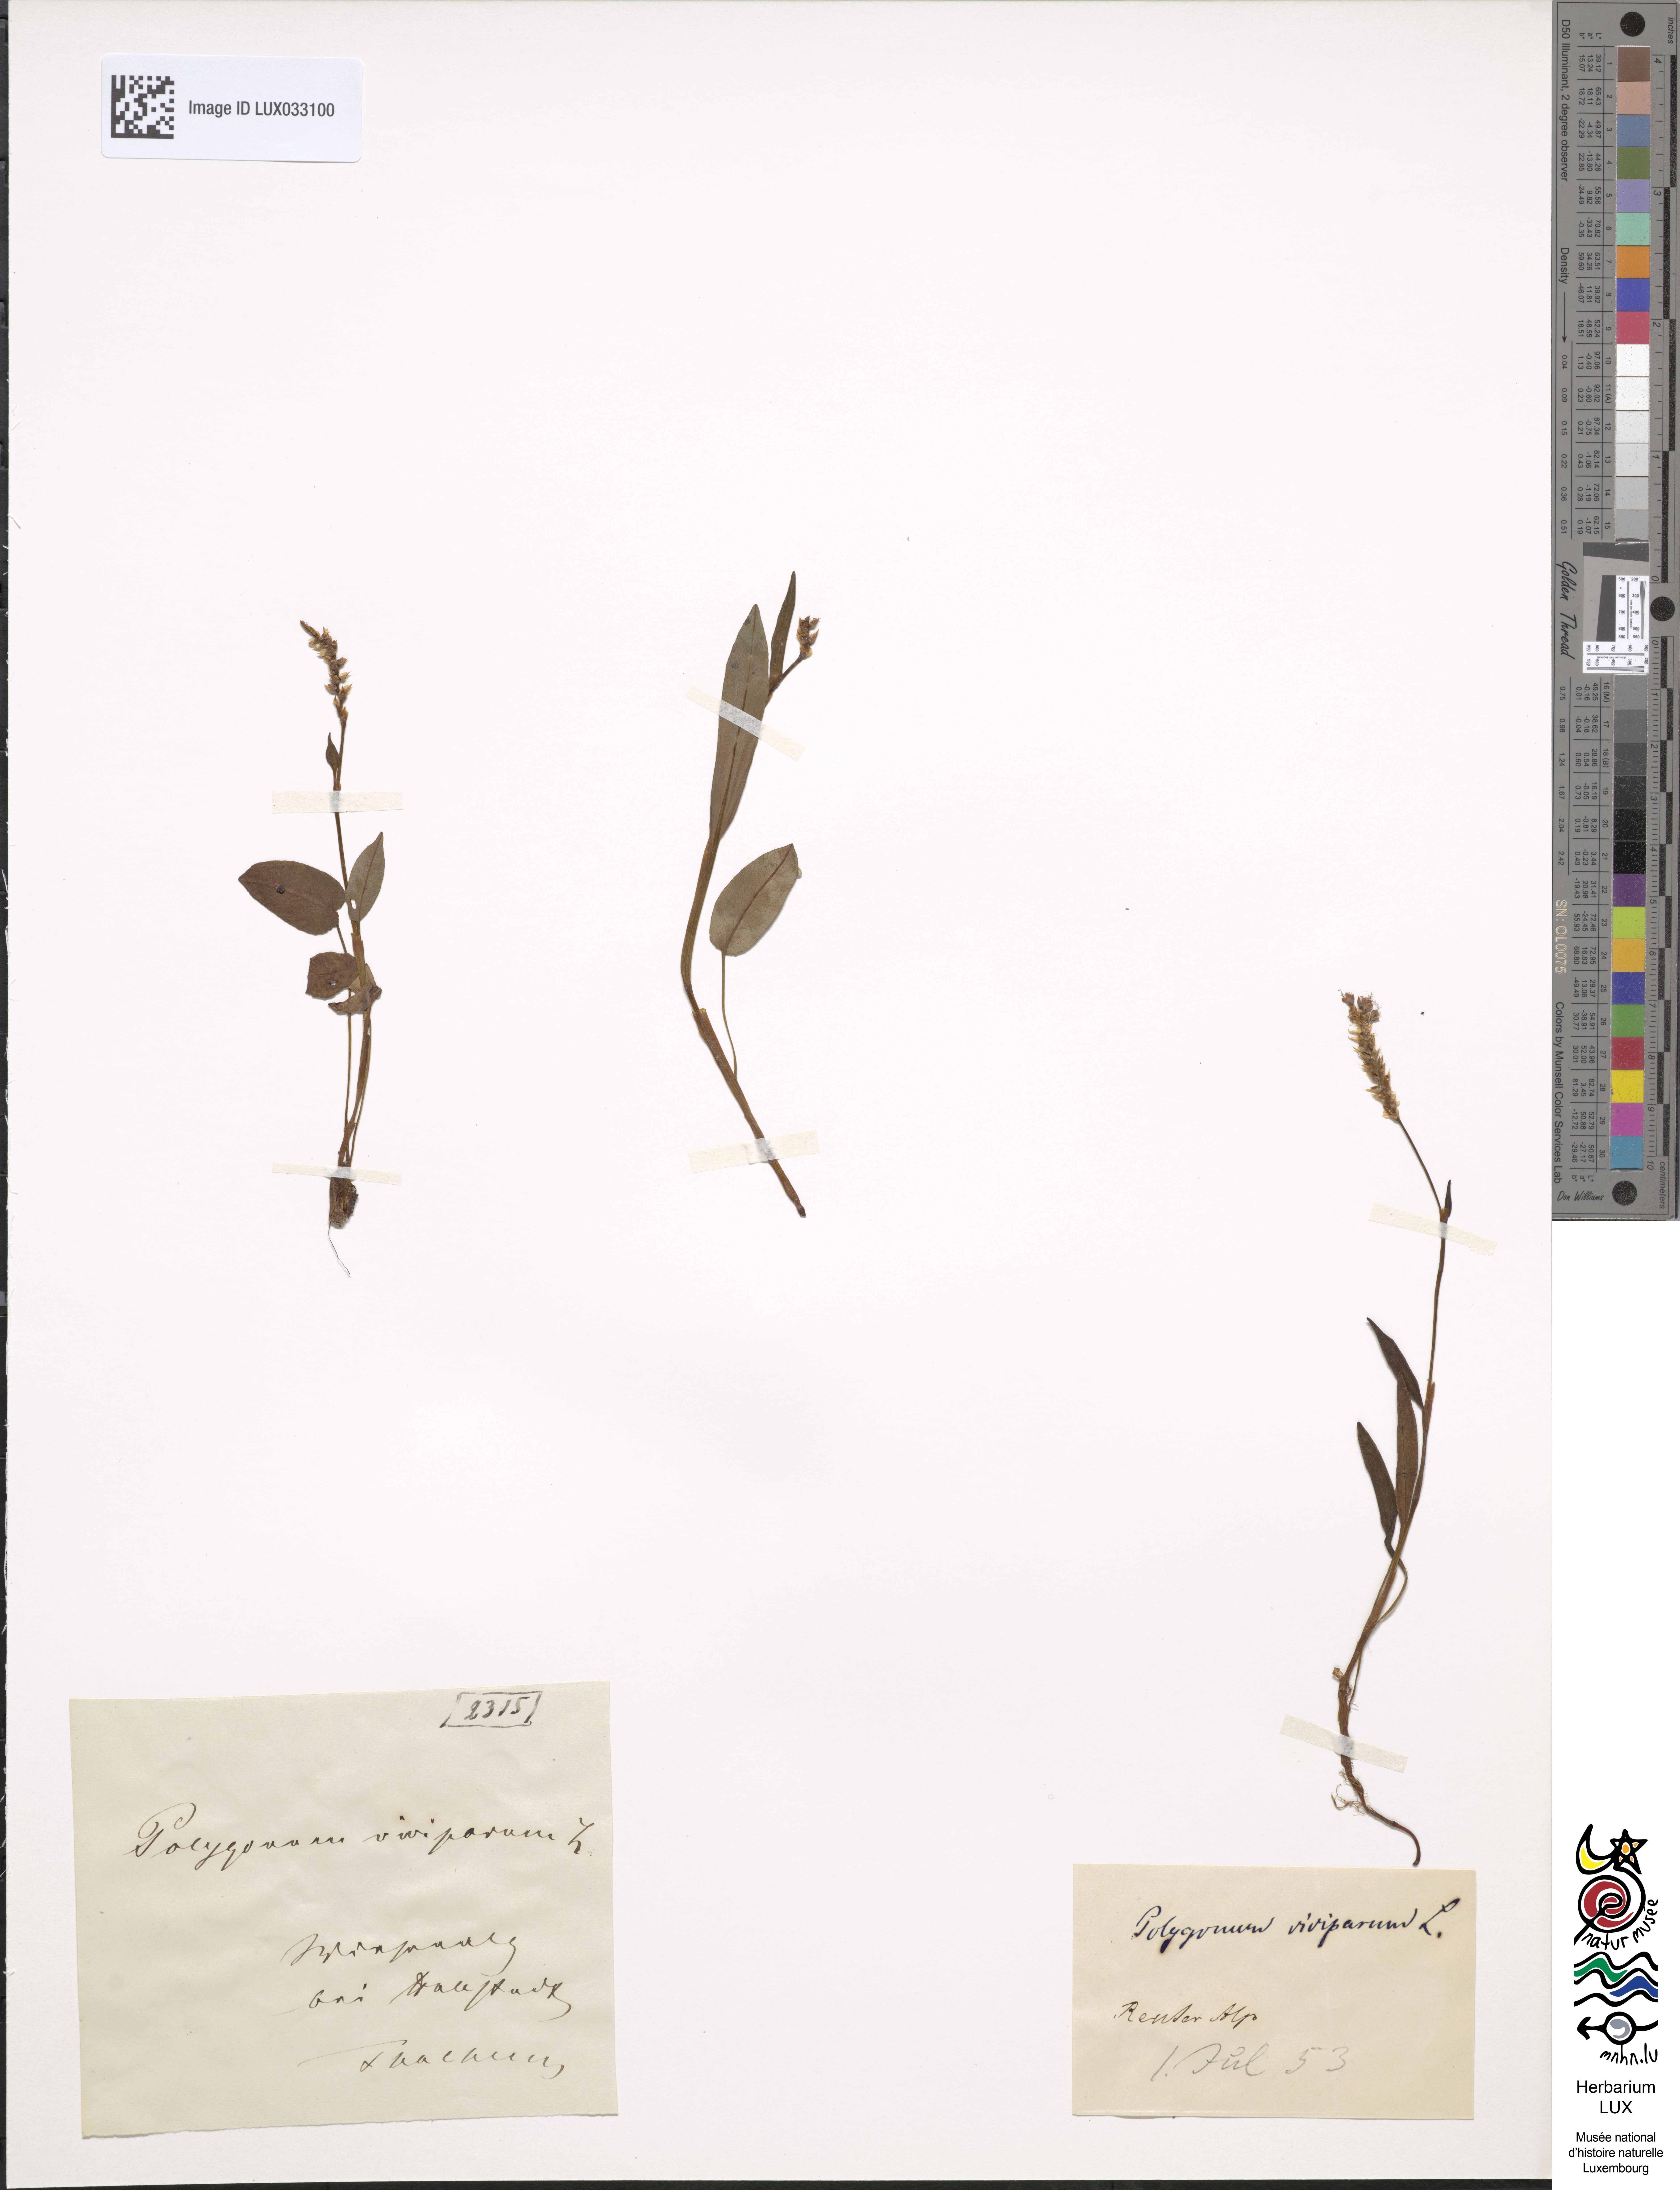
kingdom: Plantae
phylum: Tracheophyta
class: Magnoliopsida
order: Caryophyllales
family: Polygonaceae
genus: Bistorta
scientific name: Bistorta vivipara
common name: Alpine bistort
